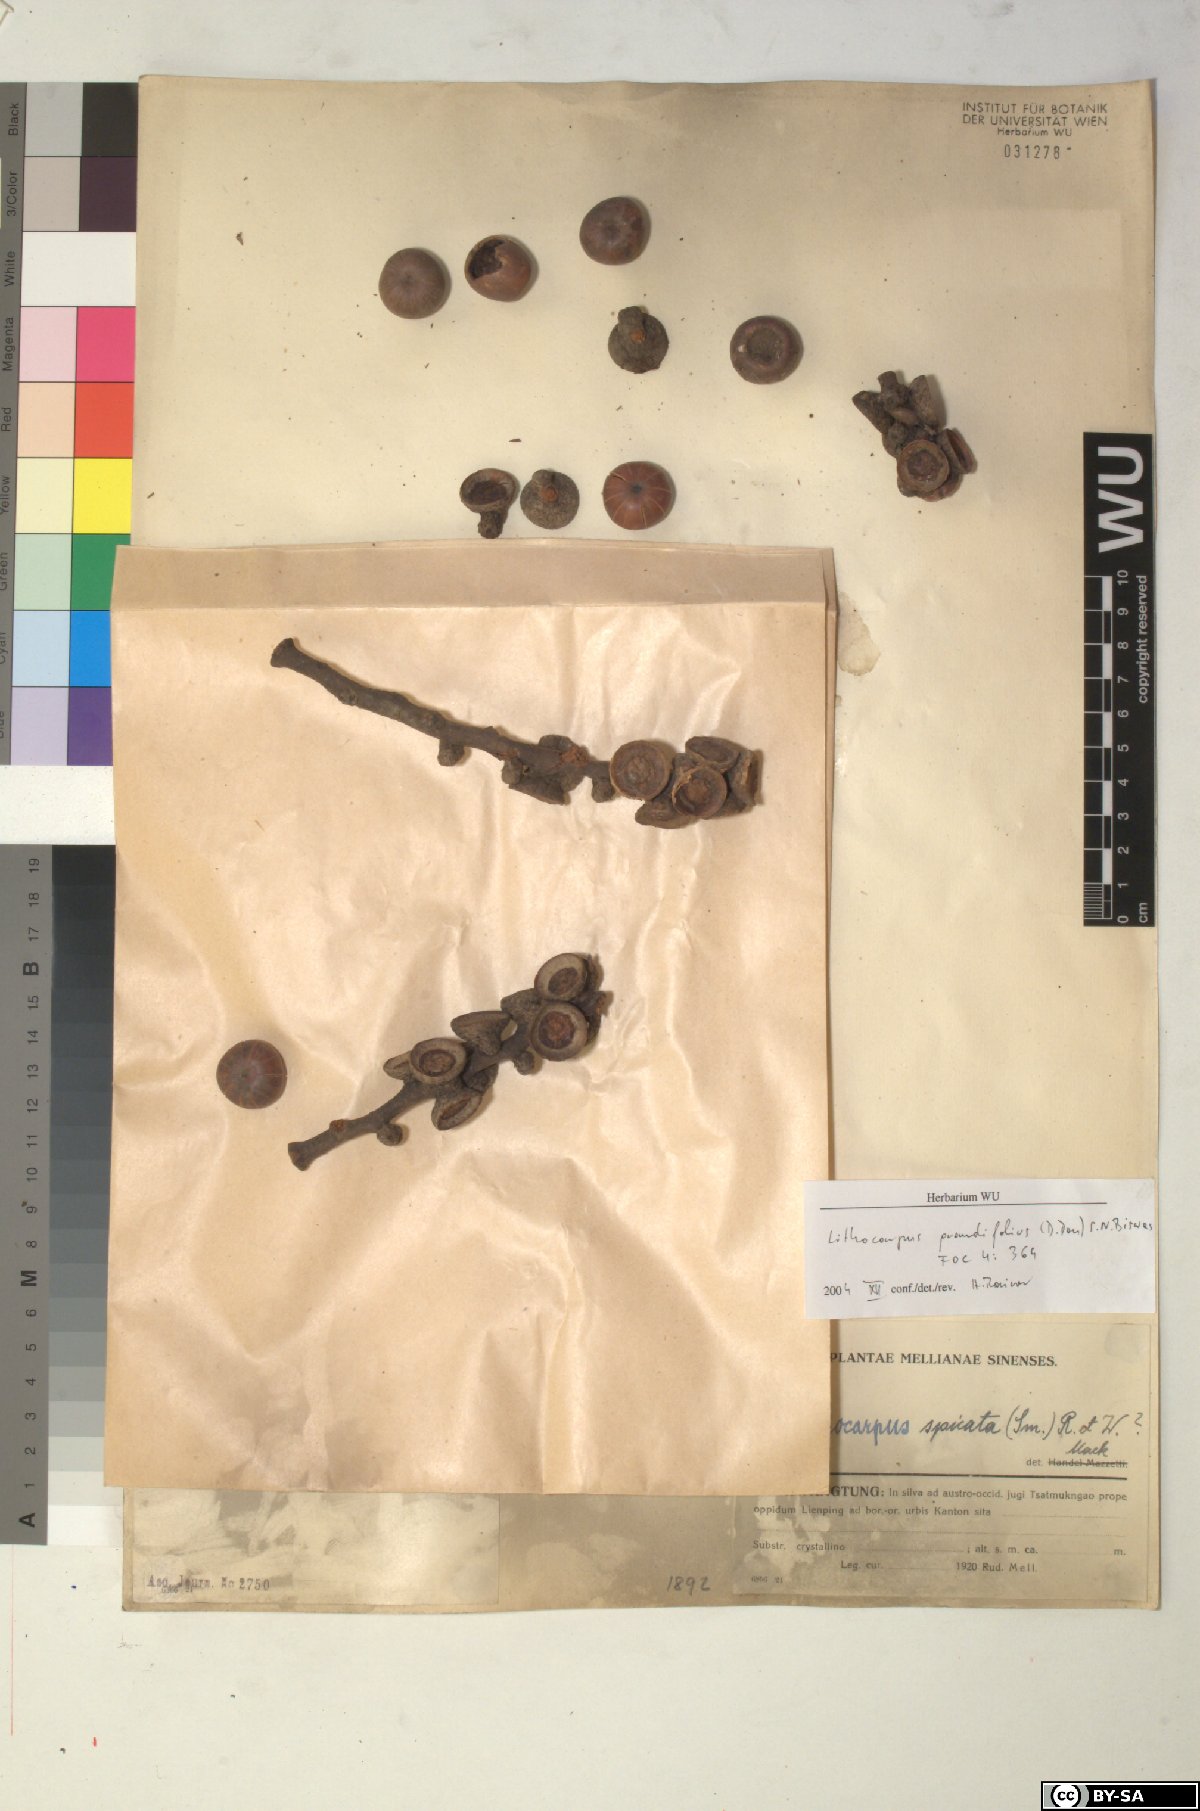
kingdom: Plantae
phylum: Tracheophyta
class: Magnoliopsida
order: Fagales
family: Fagaceae
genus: Lithocarpus
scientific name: Lithocarpus elegans
